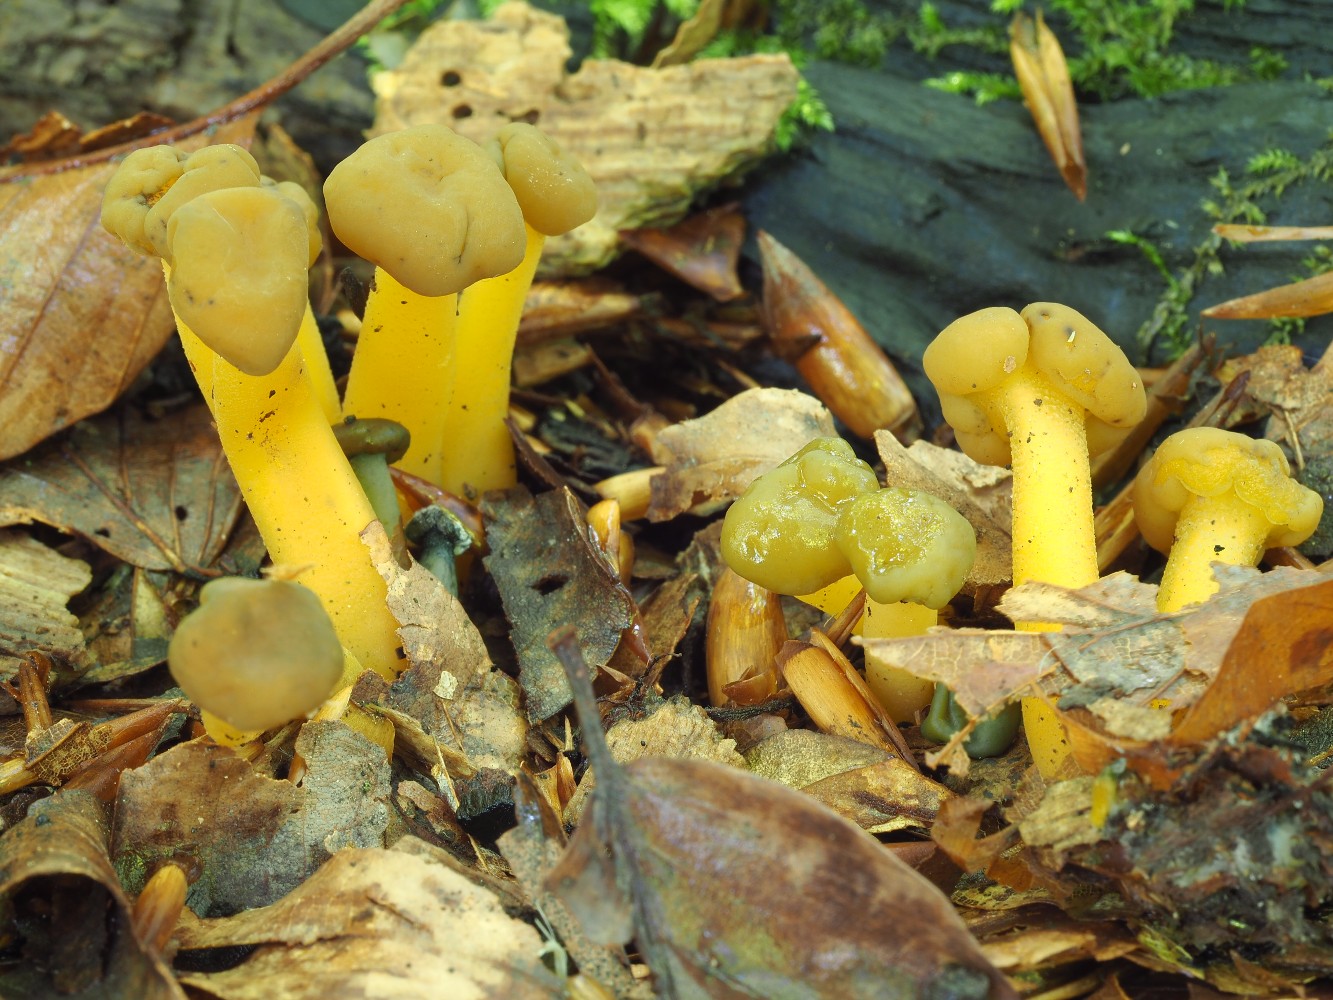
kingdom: Fungi
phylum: Ascomycota
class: Leotiomycetes
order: Leotiales
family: Leotiaceae
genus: Leotia
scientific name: Leotia lubrica
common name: ravsvamp
